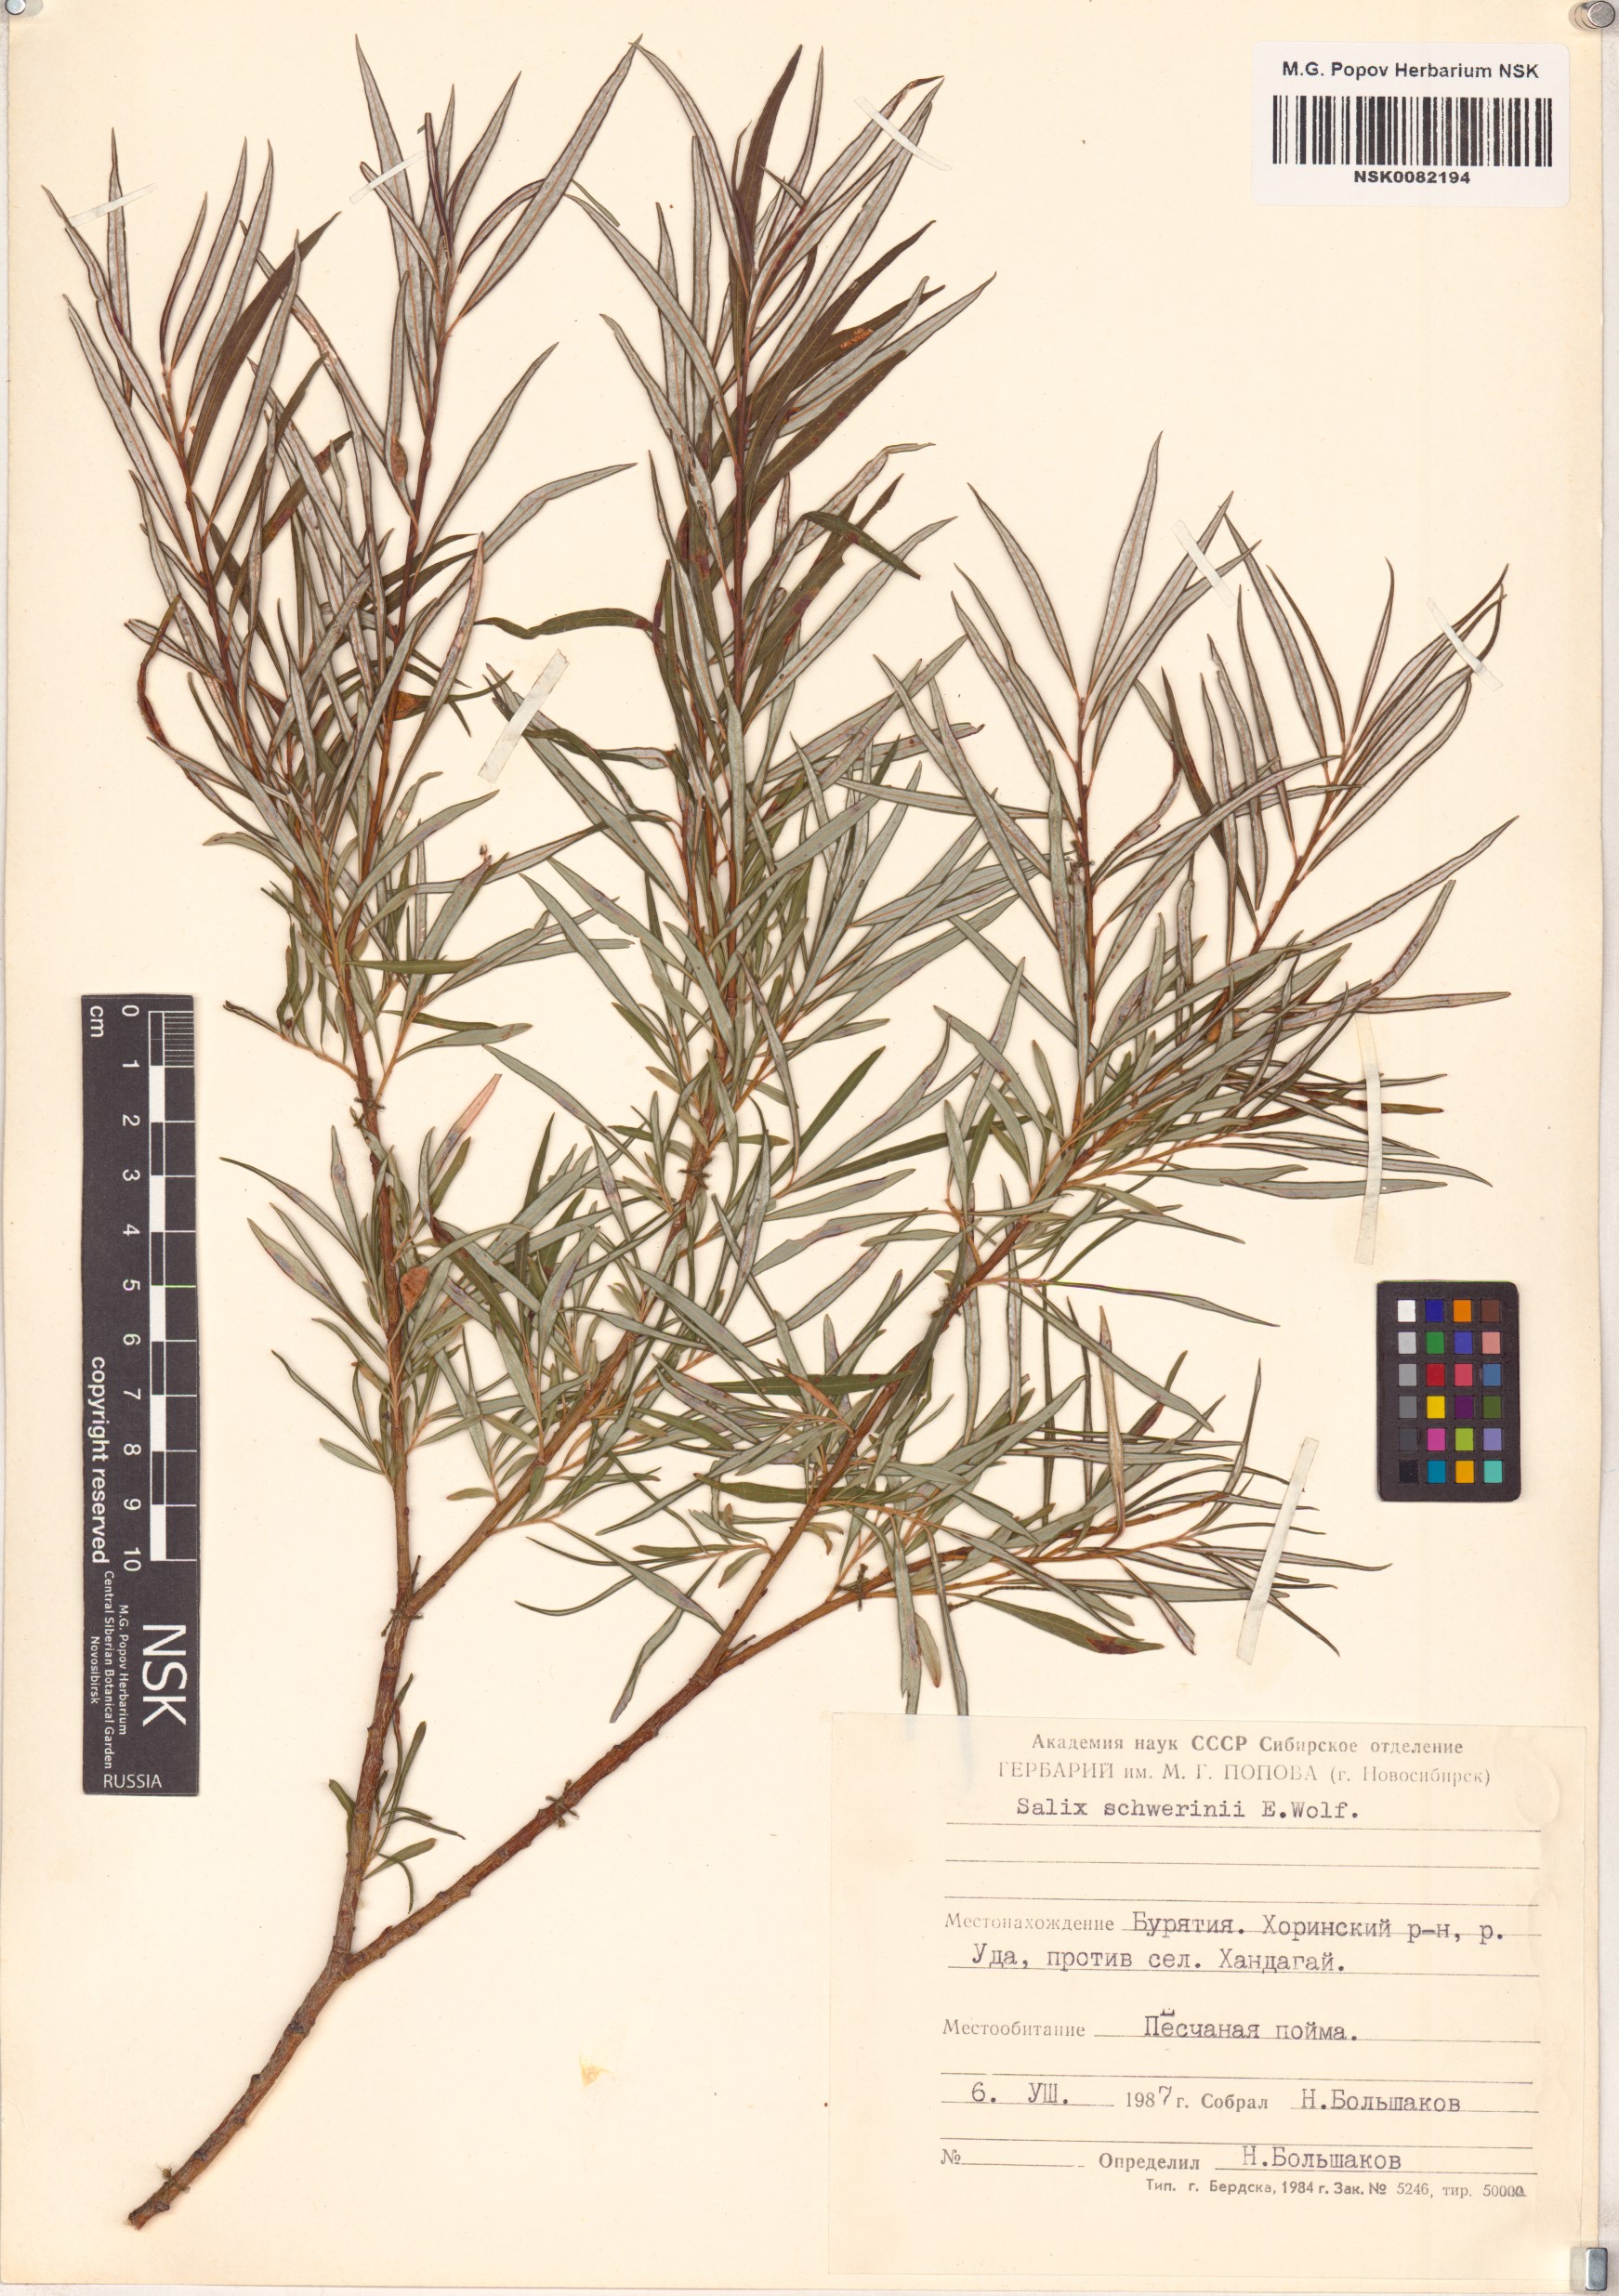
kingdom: Plantae
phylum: Tracheophyta
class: Magnoliopsida
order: Malpighiales
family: Salicaceae
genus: Salix
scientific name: Salix schwerinii
